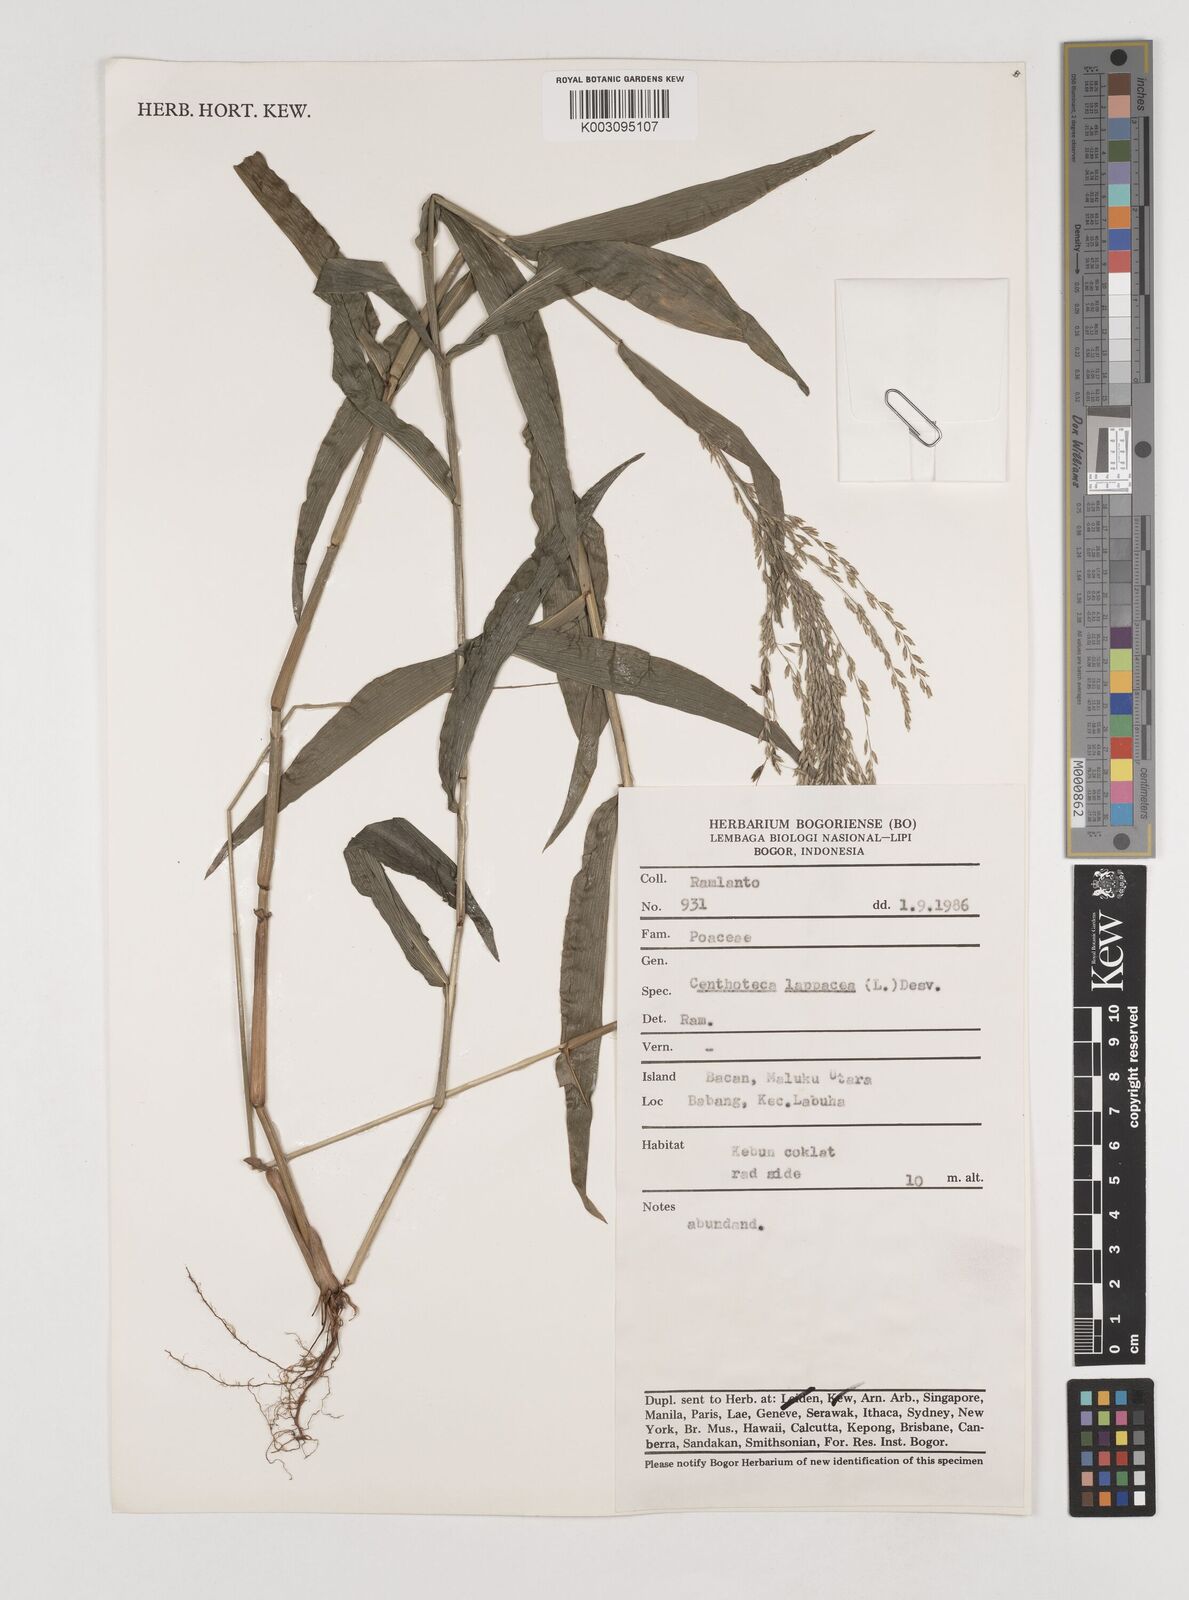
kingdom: Plantae
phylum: Tracheophyta
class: Liliopsida
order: Poales
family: Poaceae
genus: Centotheca
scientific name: Centotheca lappacea
